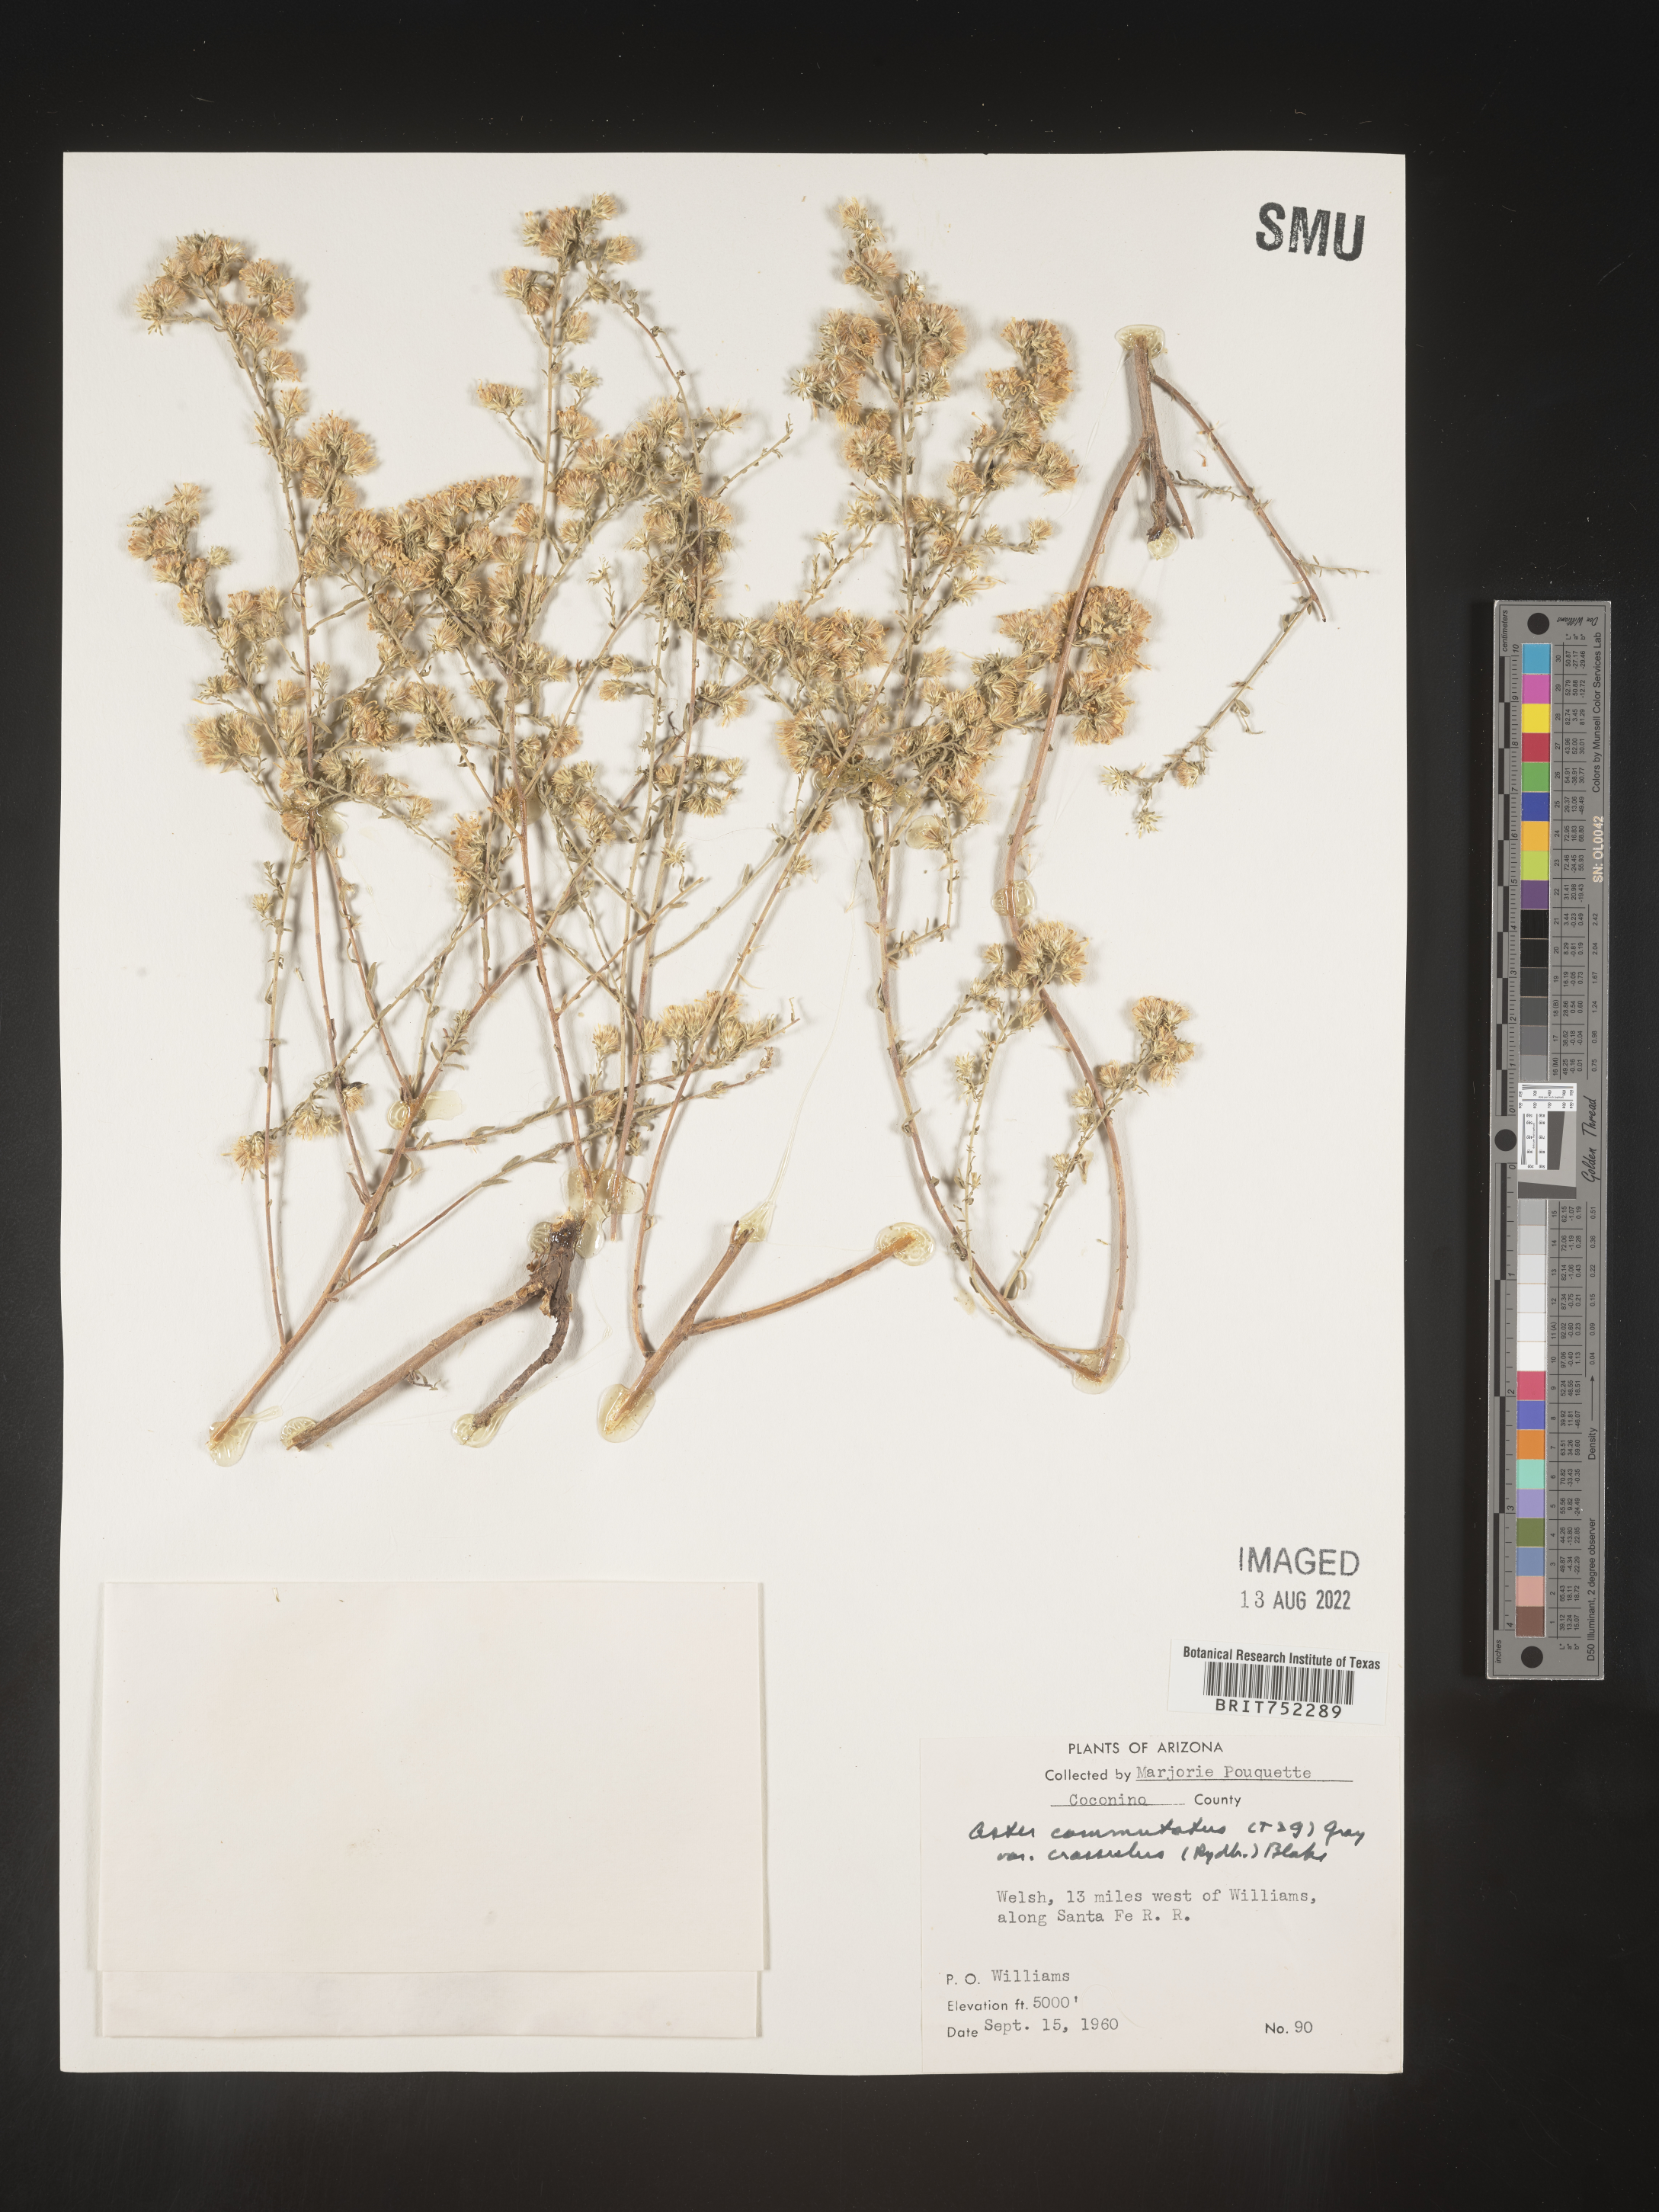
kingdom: Plantae
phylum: Tracheophyta
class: Magnoliopsida
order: Asterales
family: Asteraceae
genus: Symphyotrichum
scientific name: Symphyotrichum falcatum
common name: Creeping white prairie aster
